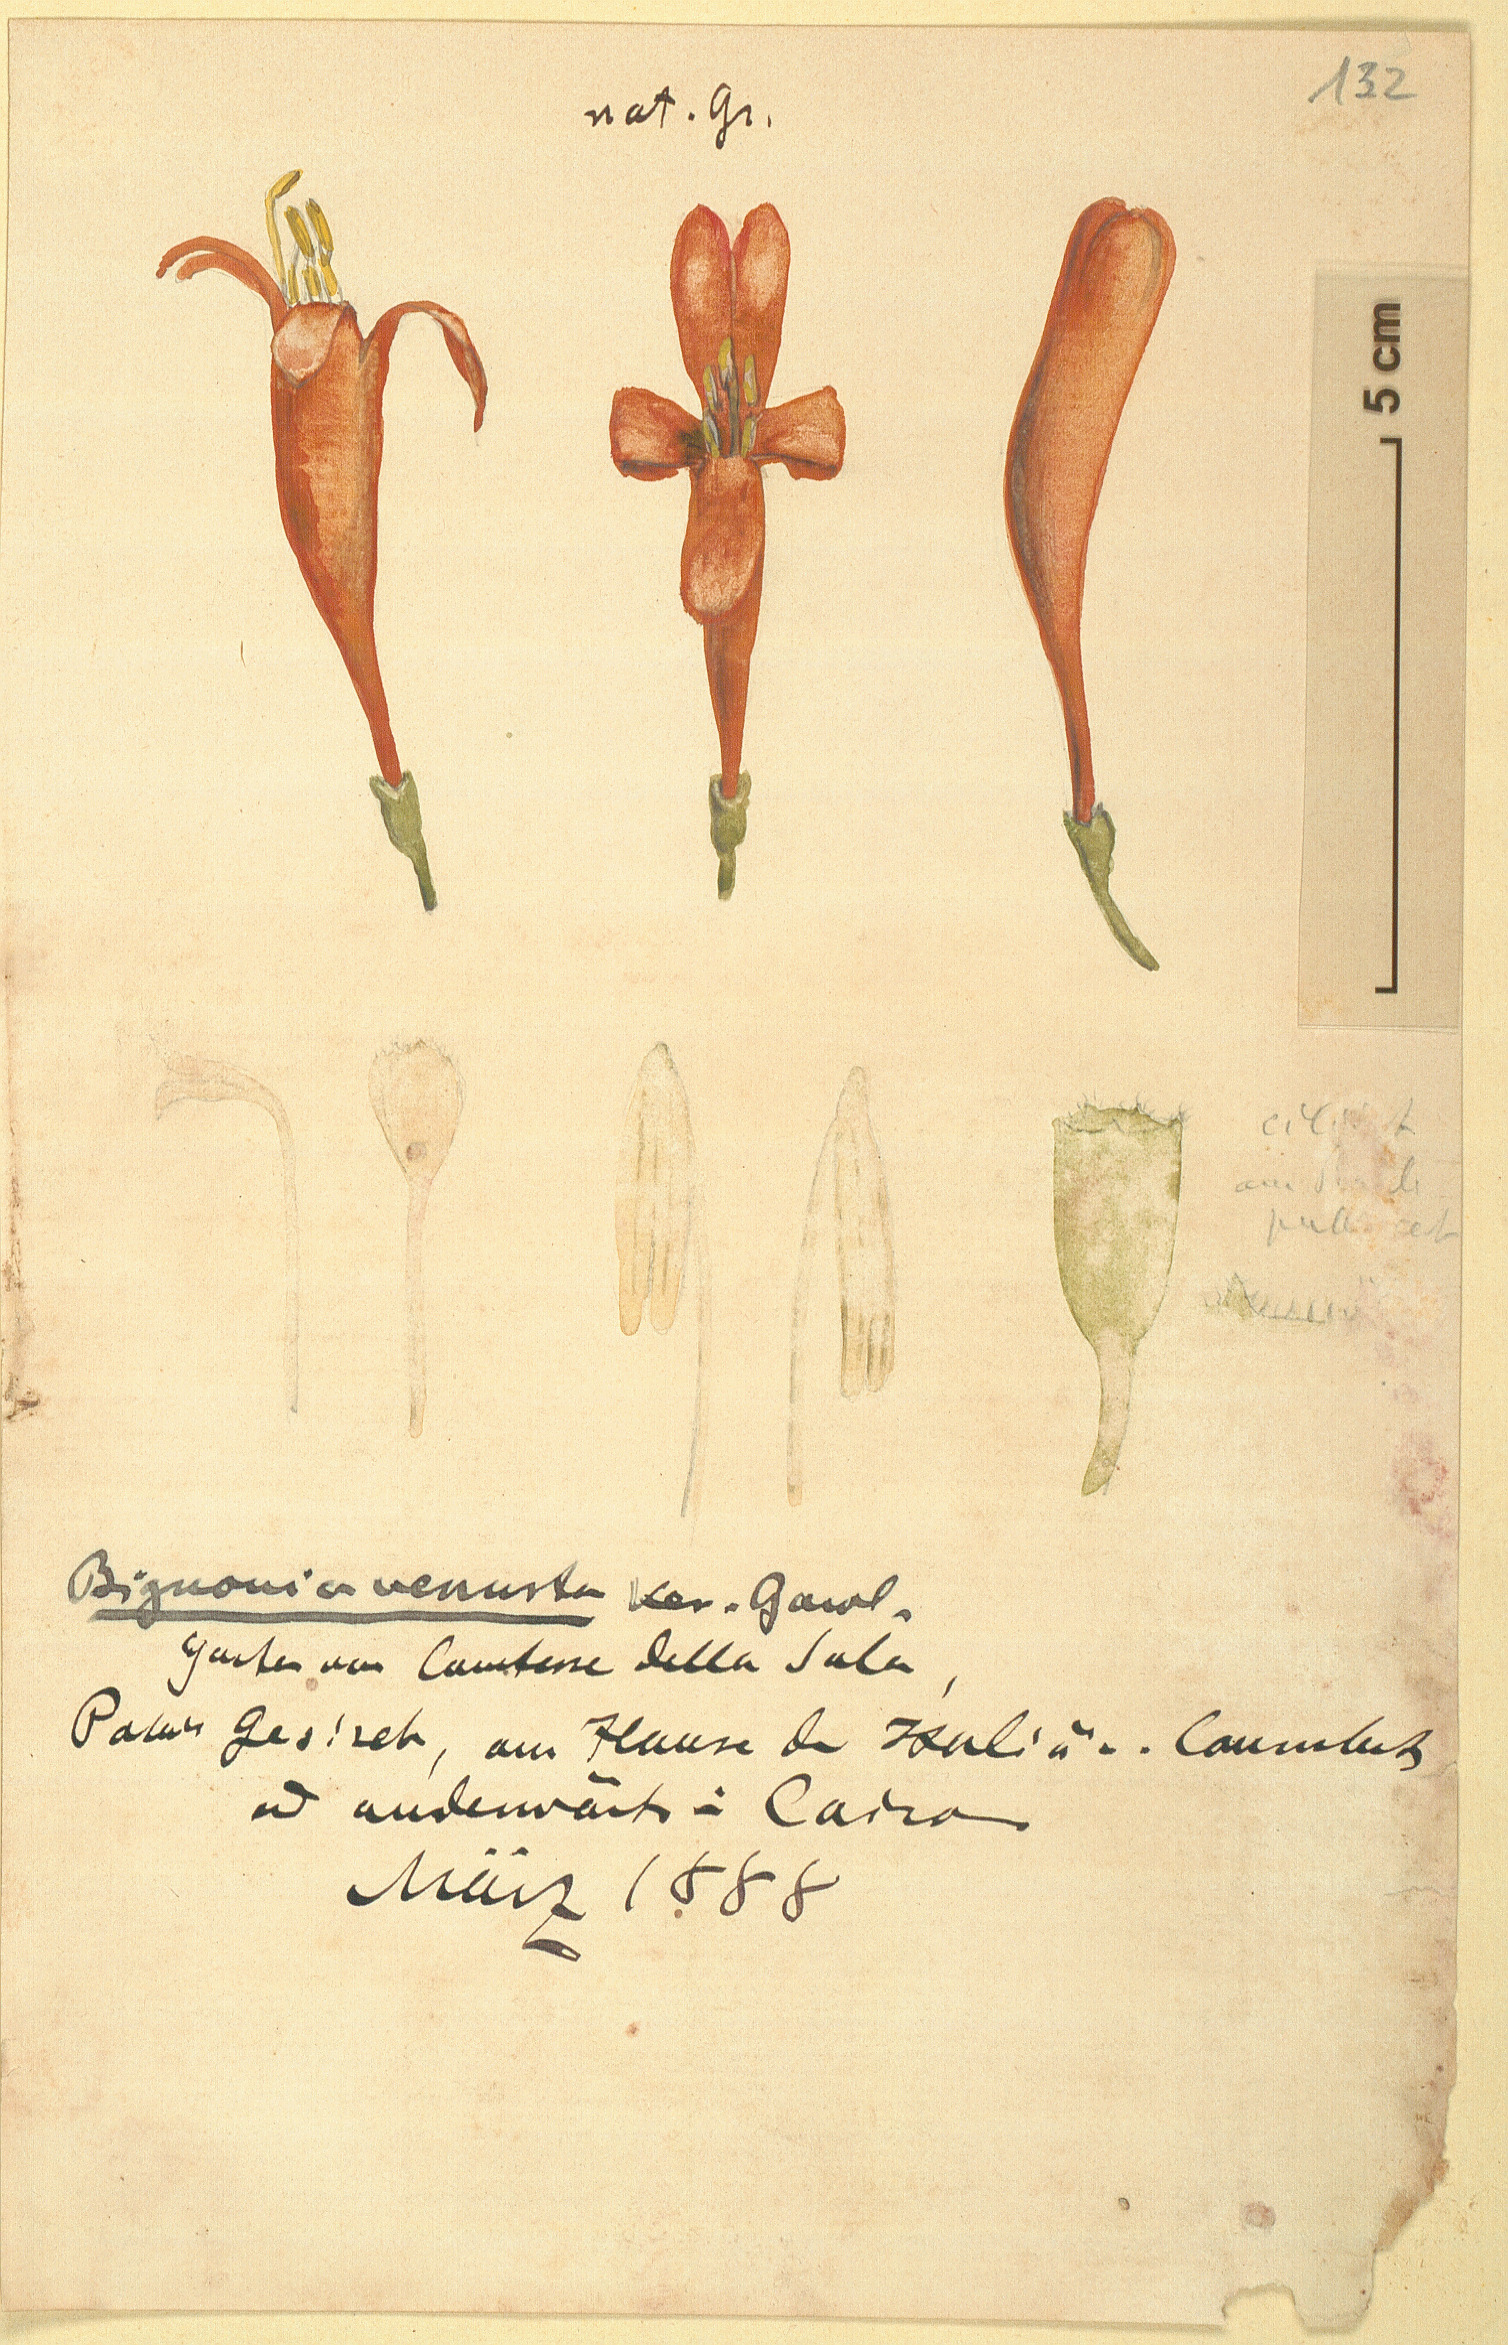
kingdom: Plantae
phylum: Tracheophyta
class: Magnoliopsida
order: Lamiales
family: Bignoniaceae
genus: Pyrostegia
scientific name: Pyrostegia venusta
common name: Flamevine
